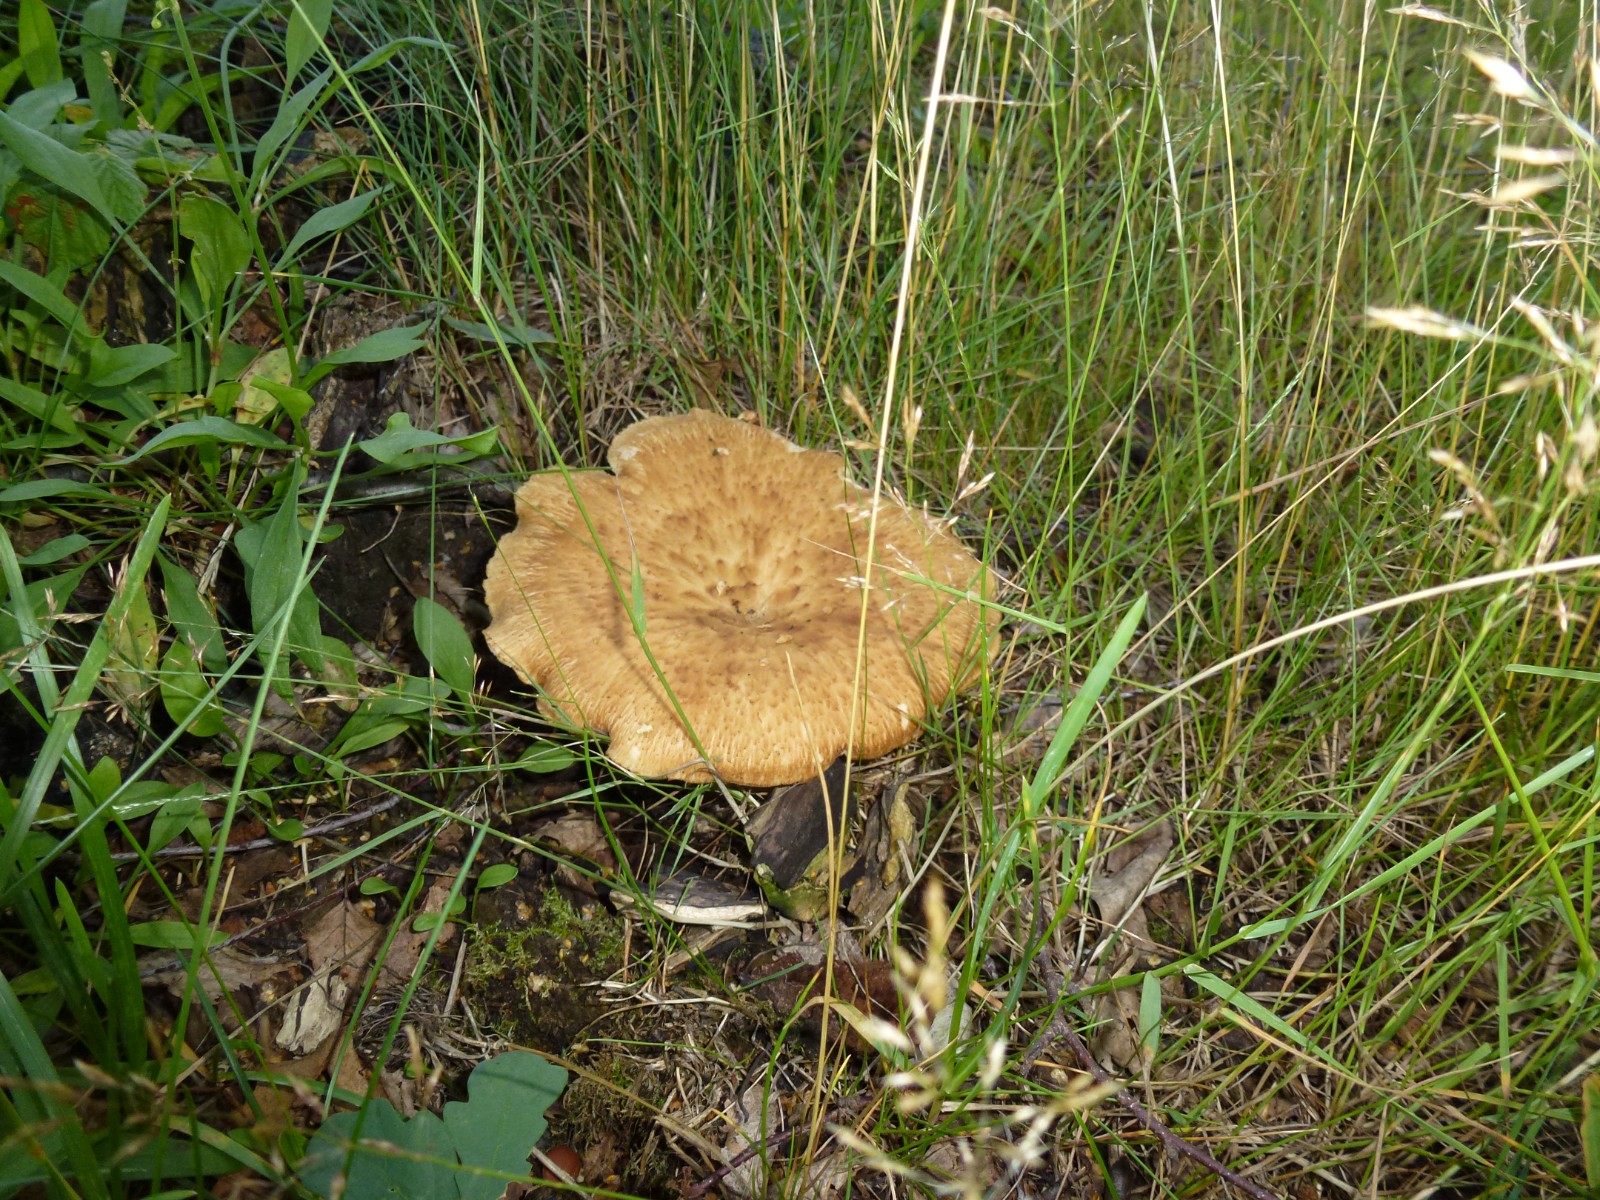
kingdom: Fungi
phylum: Basidiomycota
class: Agaricomycetes
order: Polyporales
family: Polyporaceae
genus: Polyporus
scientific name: Polyporus tuberaster
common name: knoldet stilkporesvamp
